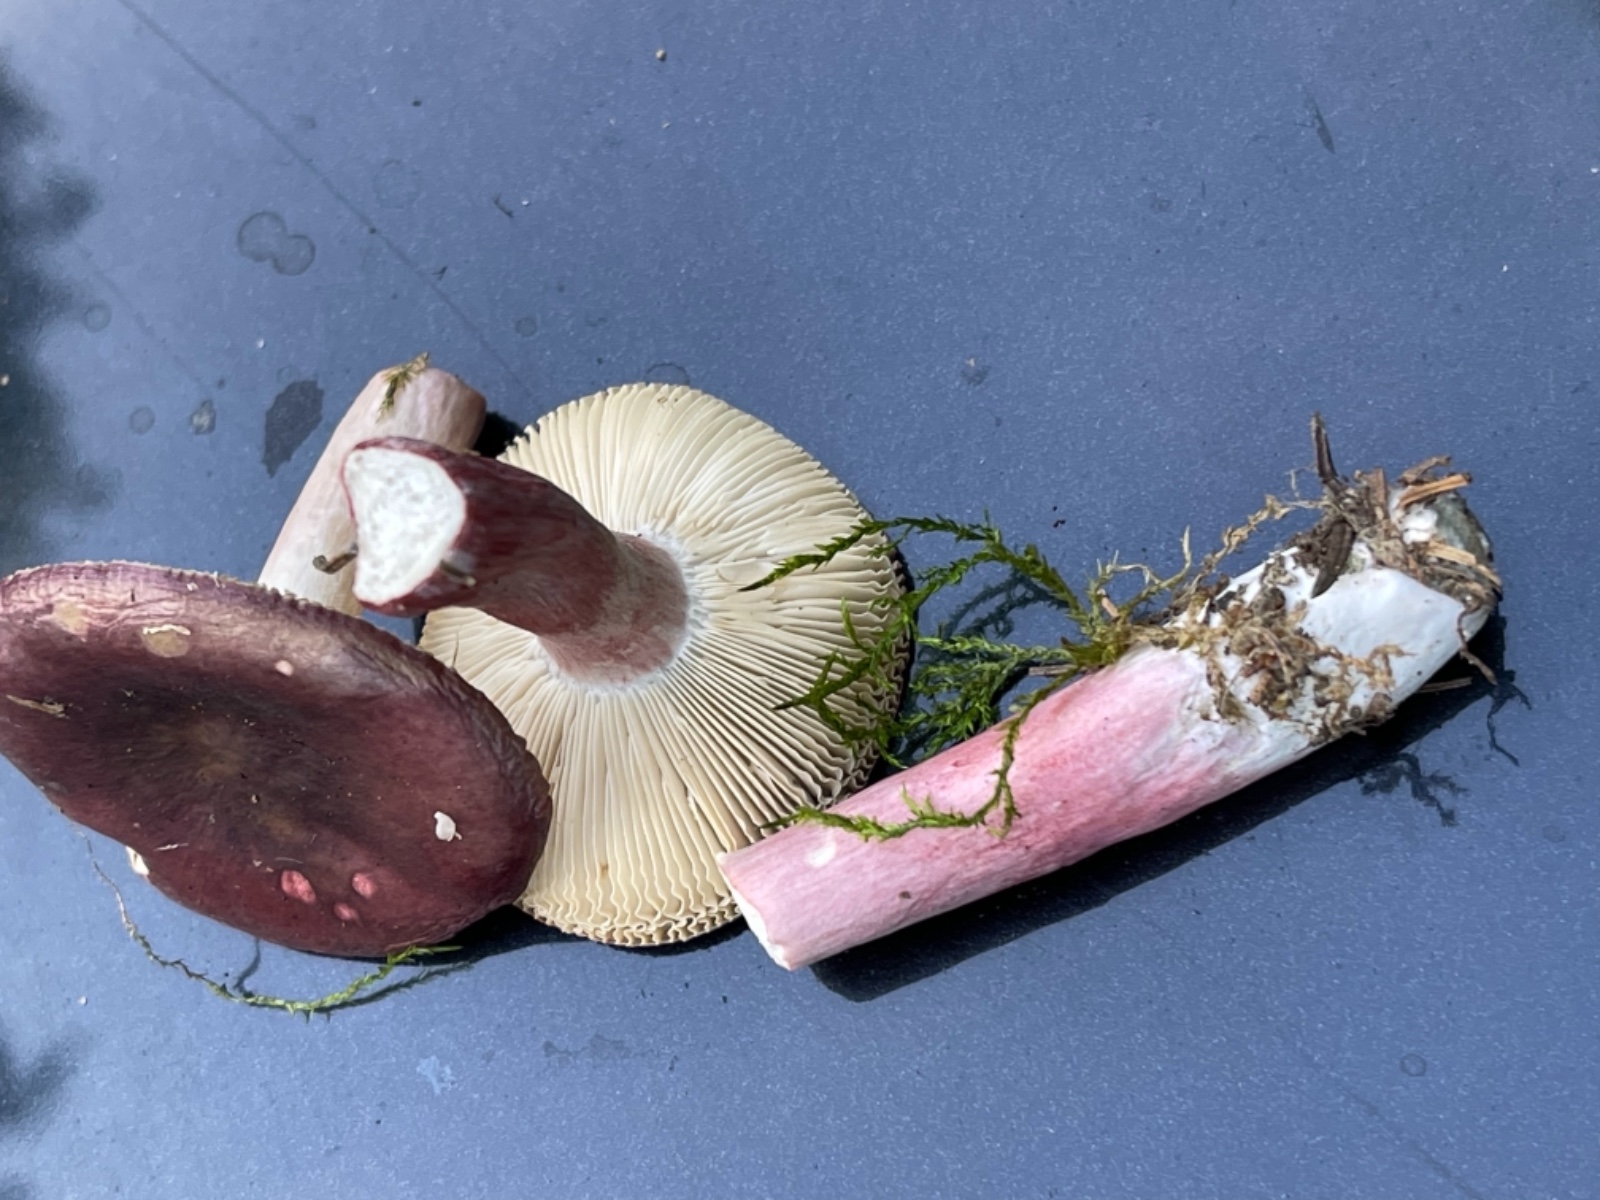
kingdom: Fungi
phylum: Basidiomycota
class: Agaricomycetes
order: Russulales
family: Russulaceae
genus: Russula
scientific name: Russula queletii
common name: Quélets skørhat
